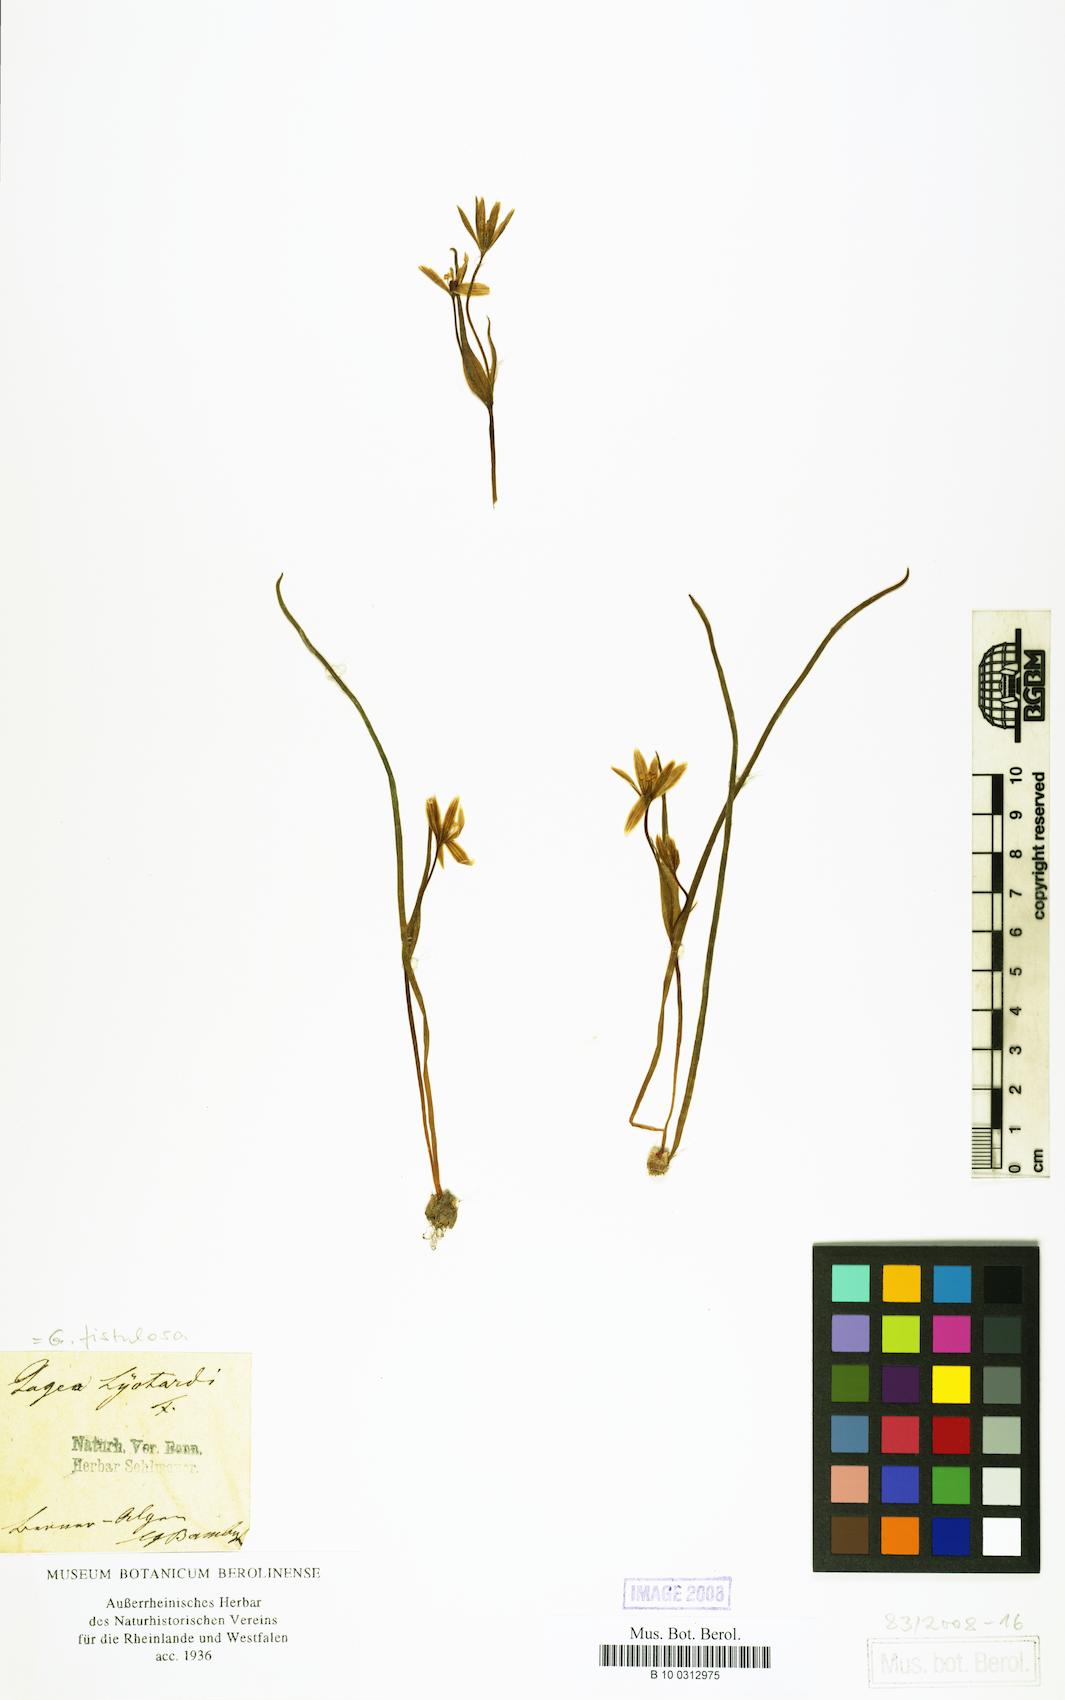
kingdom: Plantae
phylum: Tracheophyta
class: Liliopsida
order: Liliales
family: Liliaceae
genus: Gagea
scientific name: Gagea
